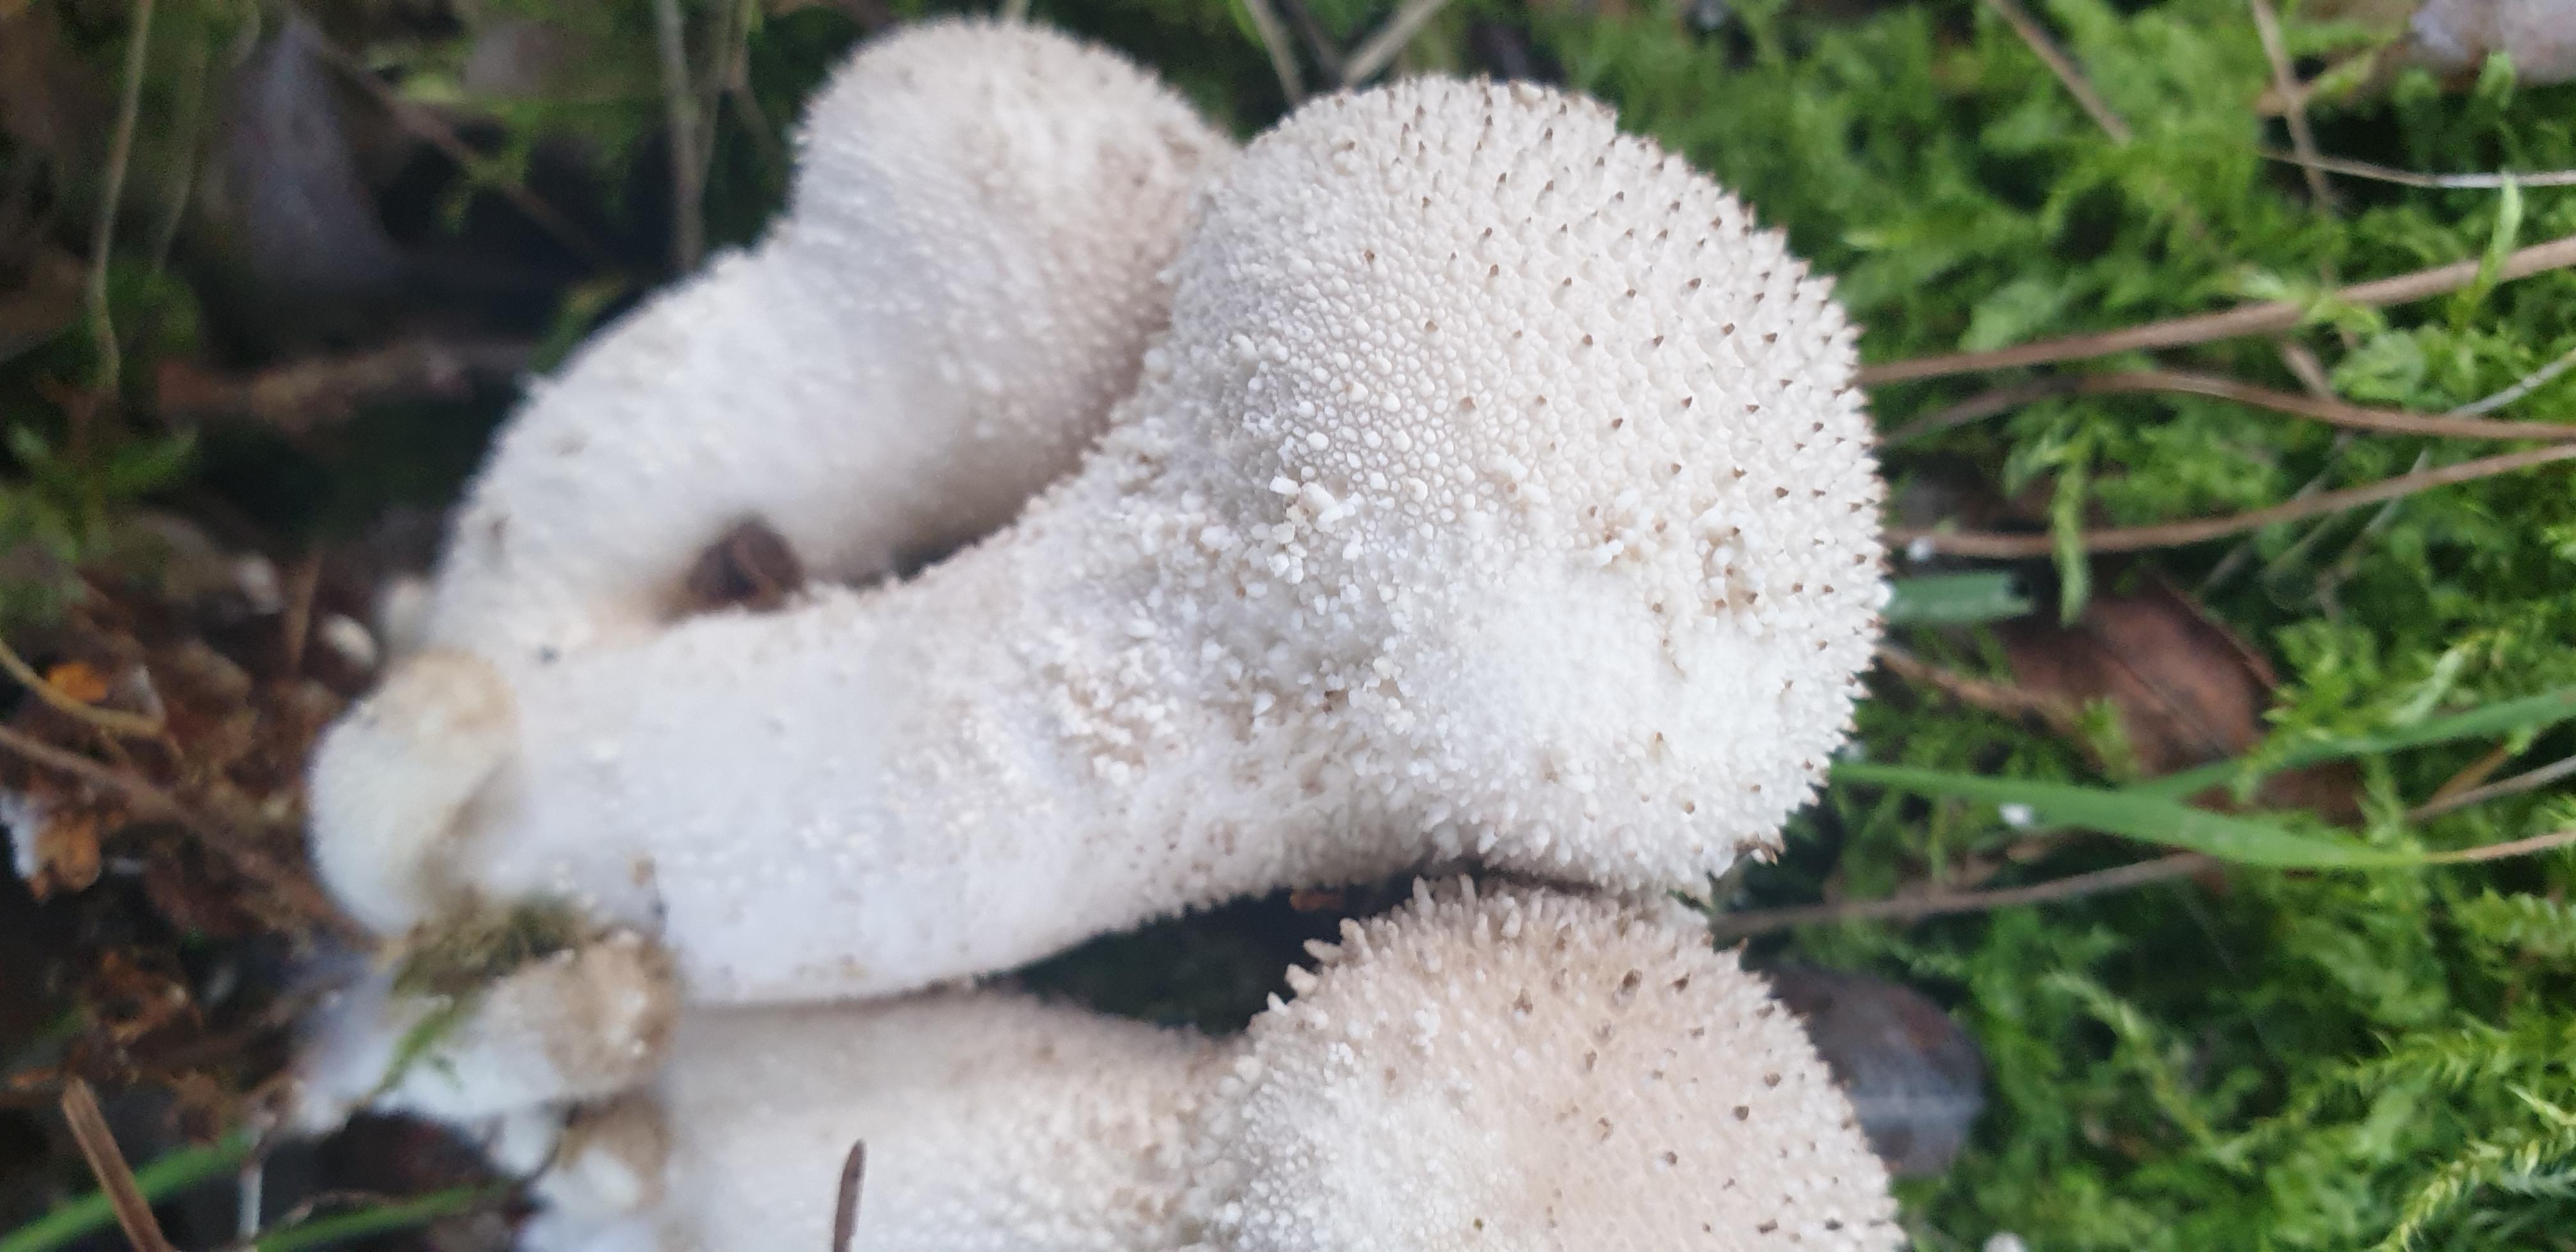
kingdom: Fungi
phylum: Basidiomycota
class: Agaricomycetes
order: Agaricales
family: Lycoperdaceae
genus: Lycoperdon
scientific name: Lycoperdon perlatum
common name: krystal-støvbold
